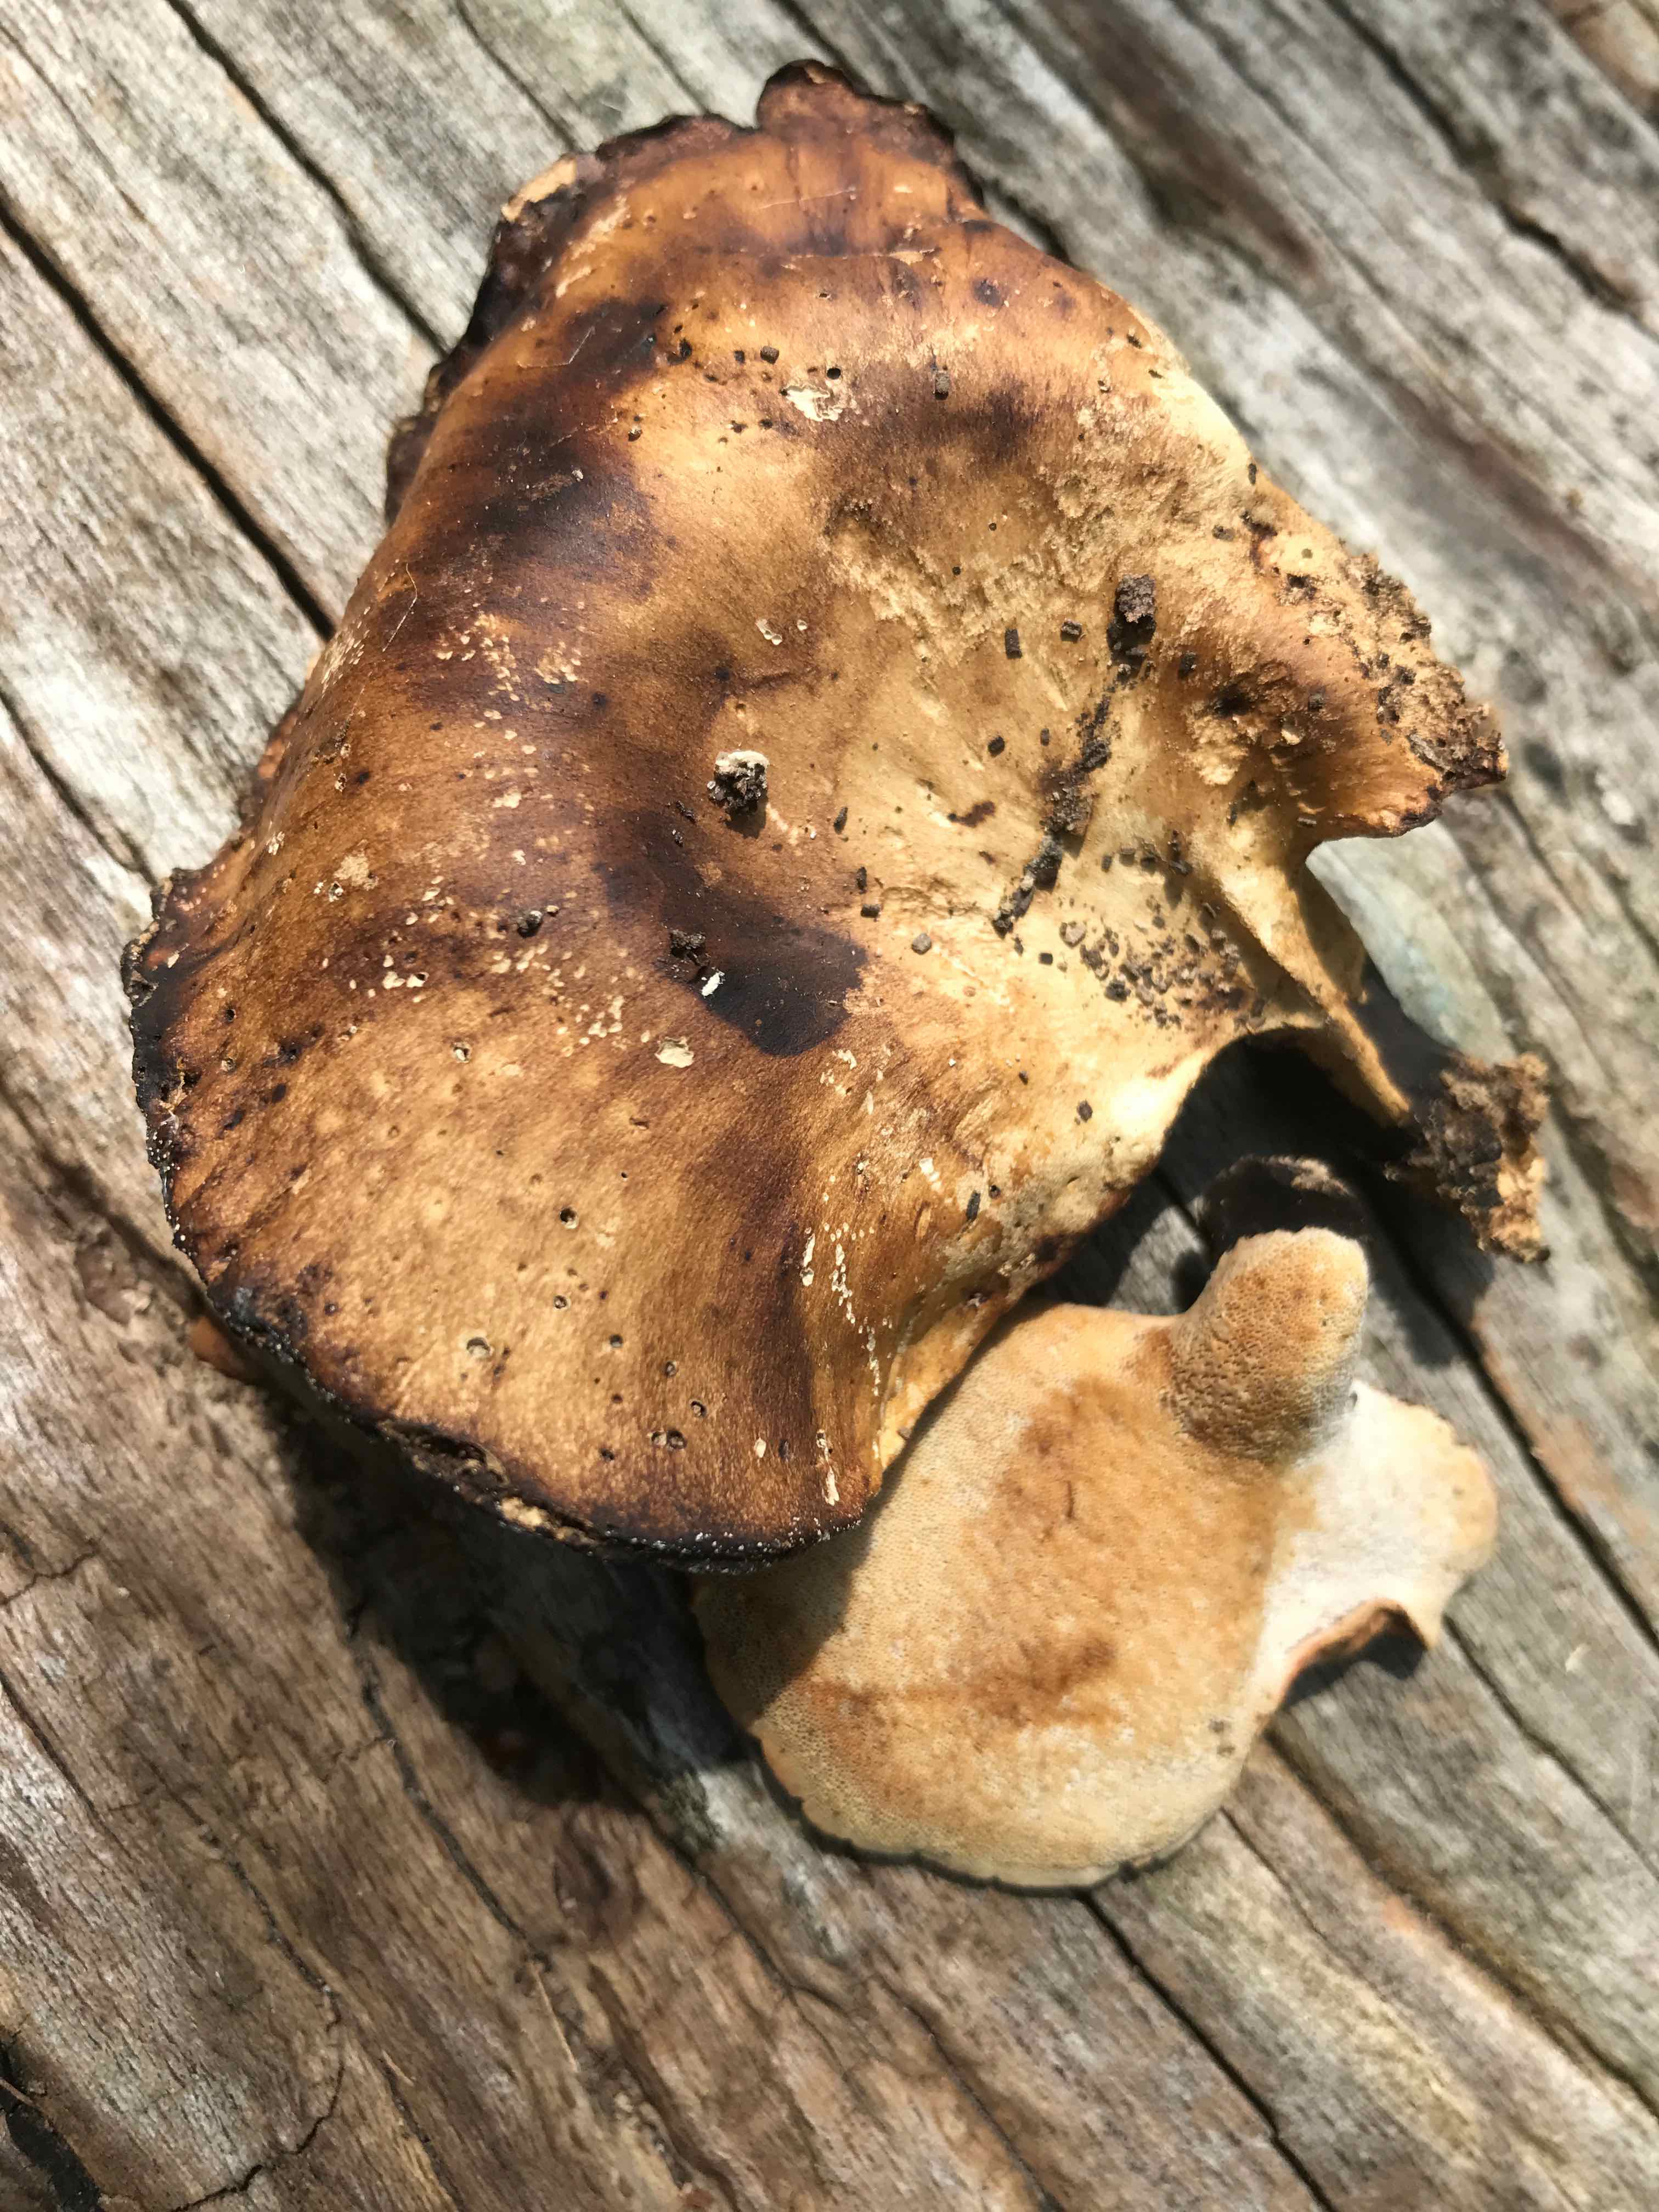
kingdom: Fungi
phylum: Basidiomycota
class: Agaricomycetes
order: Polyporales
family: Polyporaceae
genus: Cerioporus
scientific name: Cerioporus varius
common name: foranderlig stilkporesvamp
